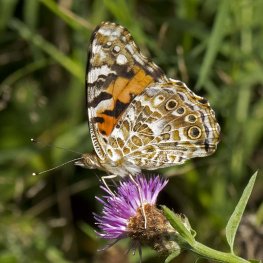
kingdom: Animalia
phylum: Arthropoda
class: Insecta
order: Lepidoptera
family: Nymphalidae
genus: Vanessa
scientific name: Vanessa cardui
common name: Painted Lady
